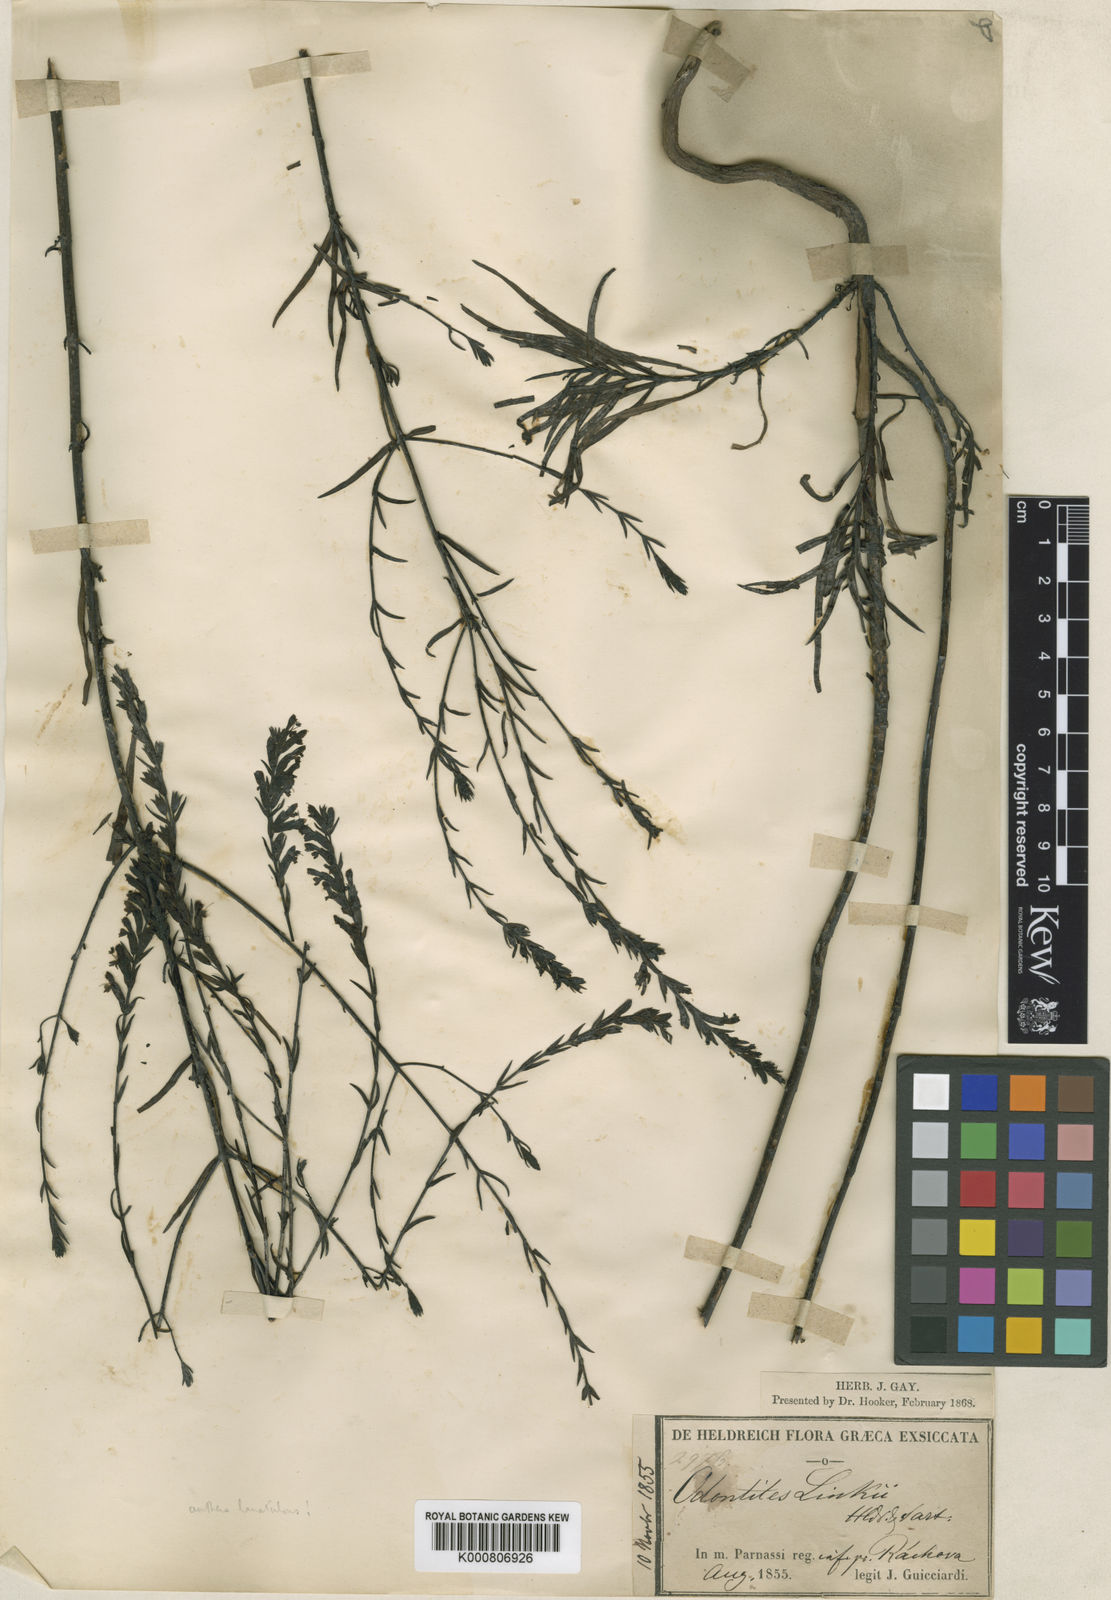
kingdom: Plantae
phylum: Tracheophyta
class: Magnoliopsida
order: Lamiales
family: Orobanchaceae
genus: Odontites
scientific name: Odontites
